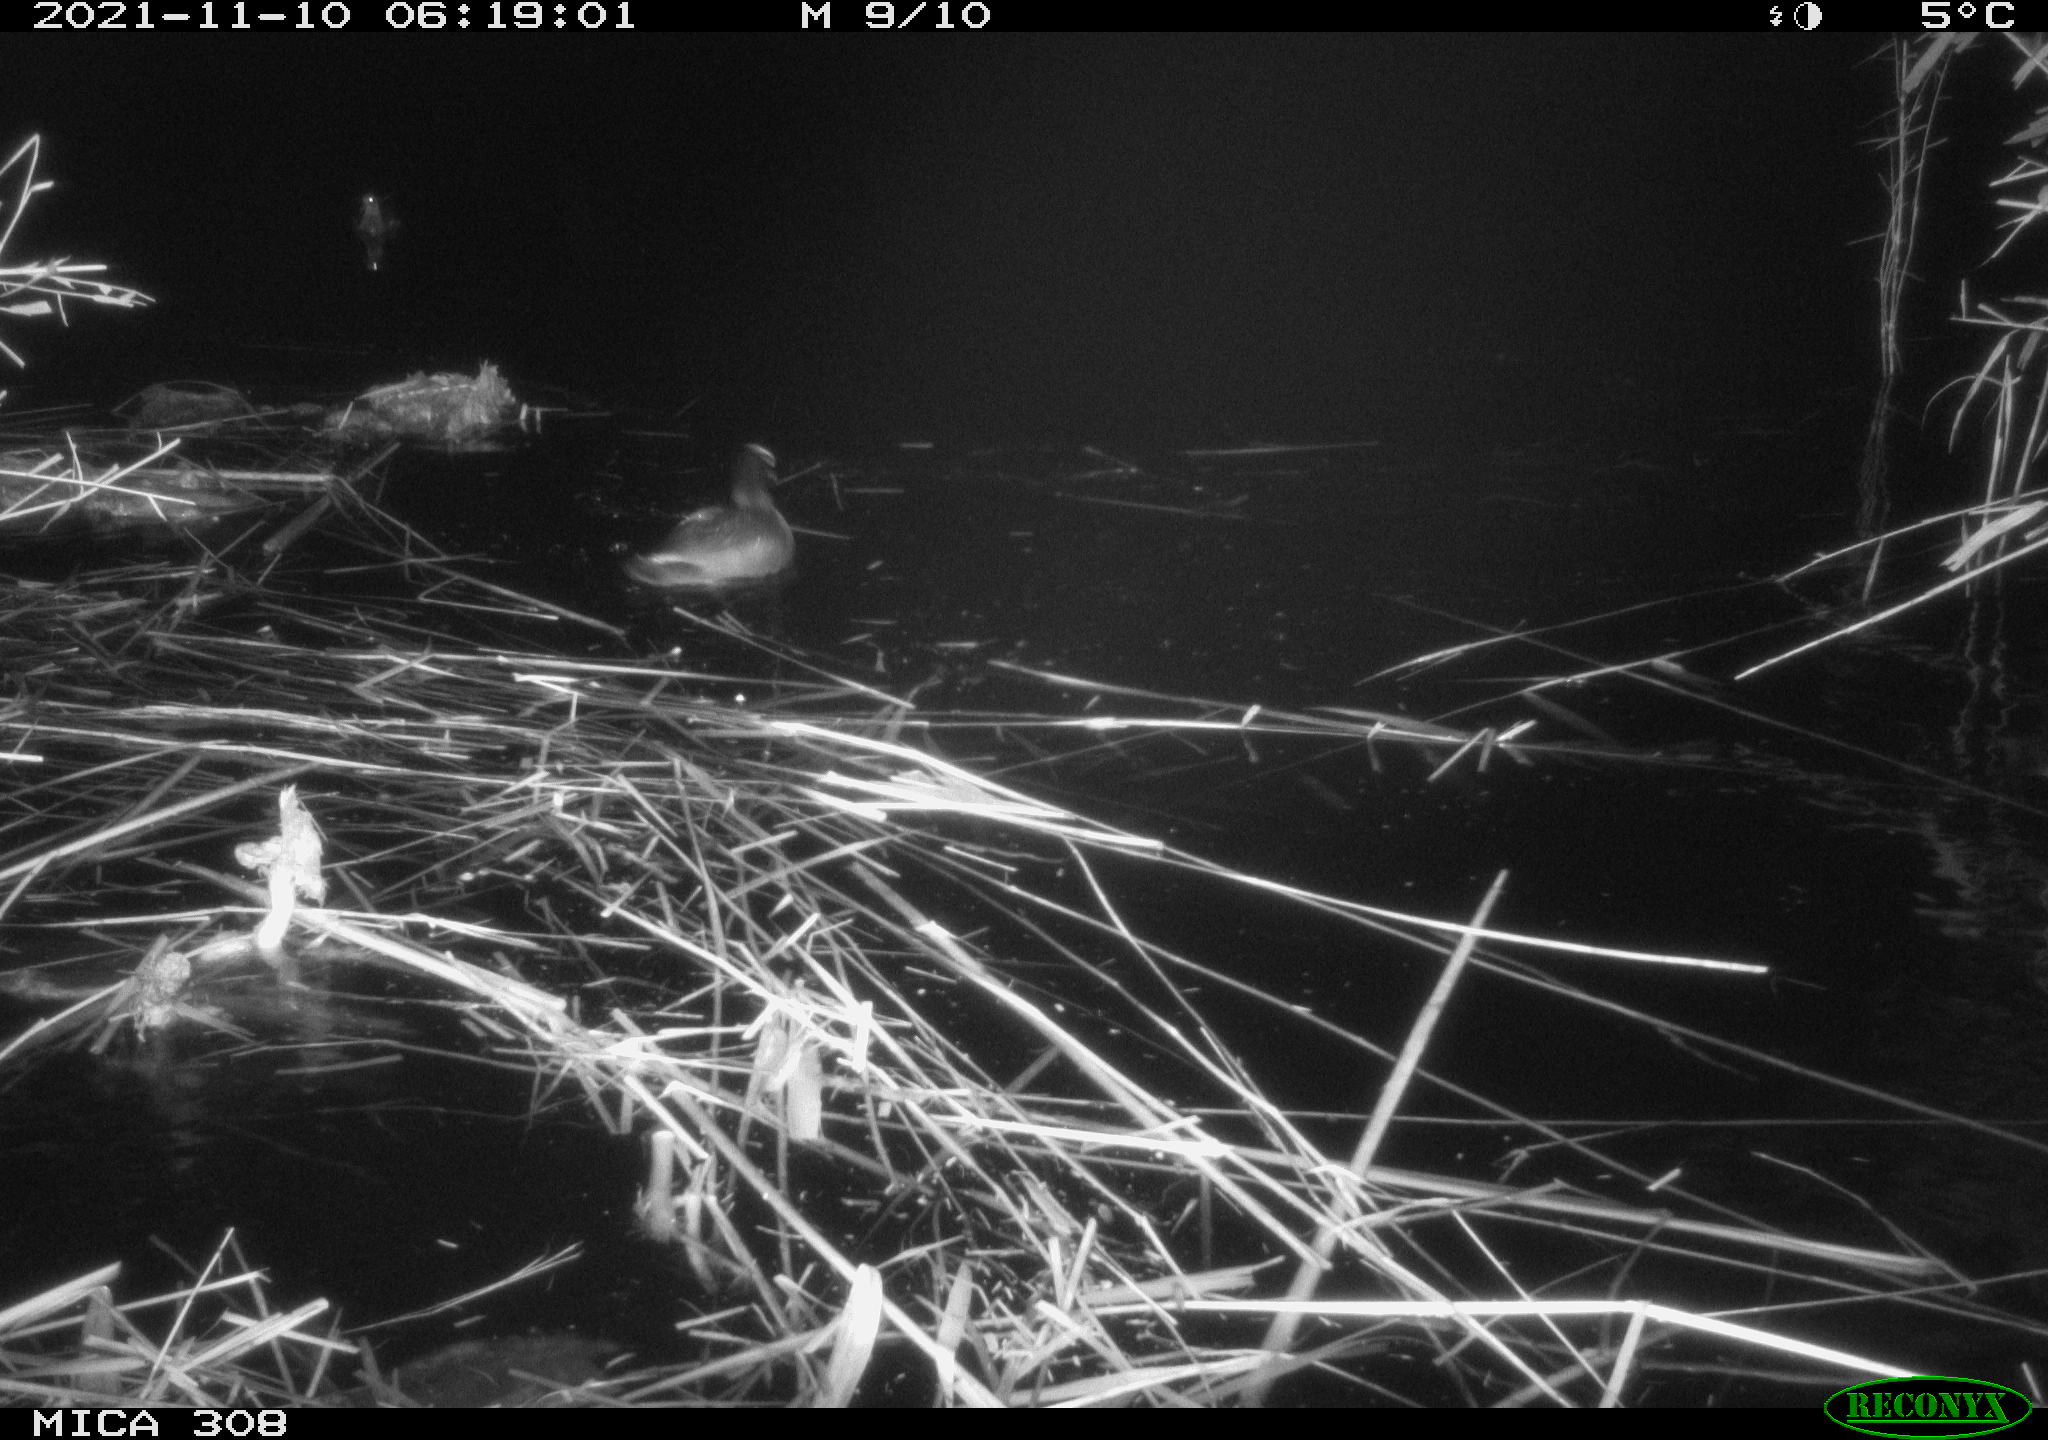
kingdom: Animalia
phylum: Chordata
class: Aves
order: Anseriformes
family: Anatidae
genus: Anas
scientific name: Anas platyrhynchos
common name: Mallard
